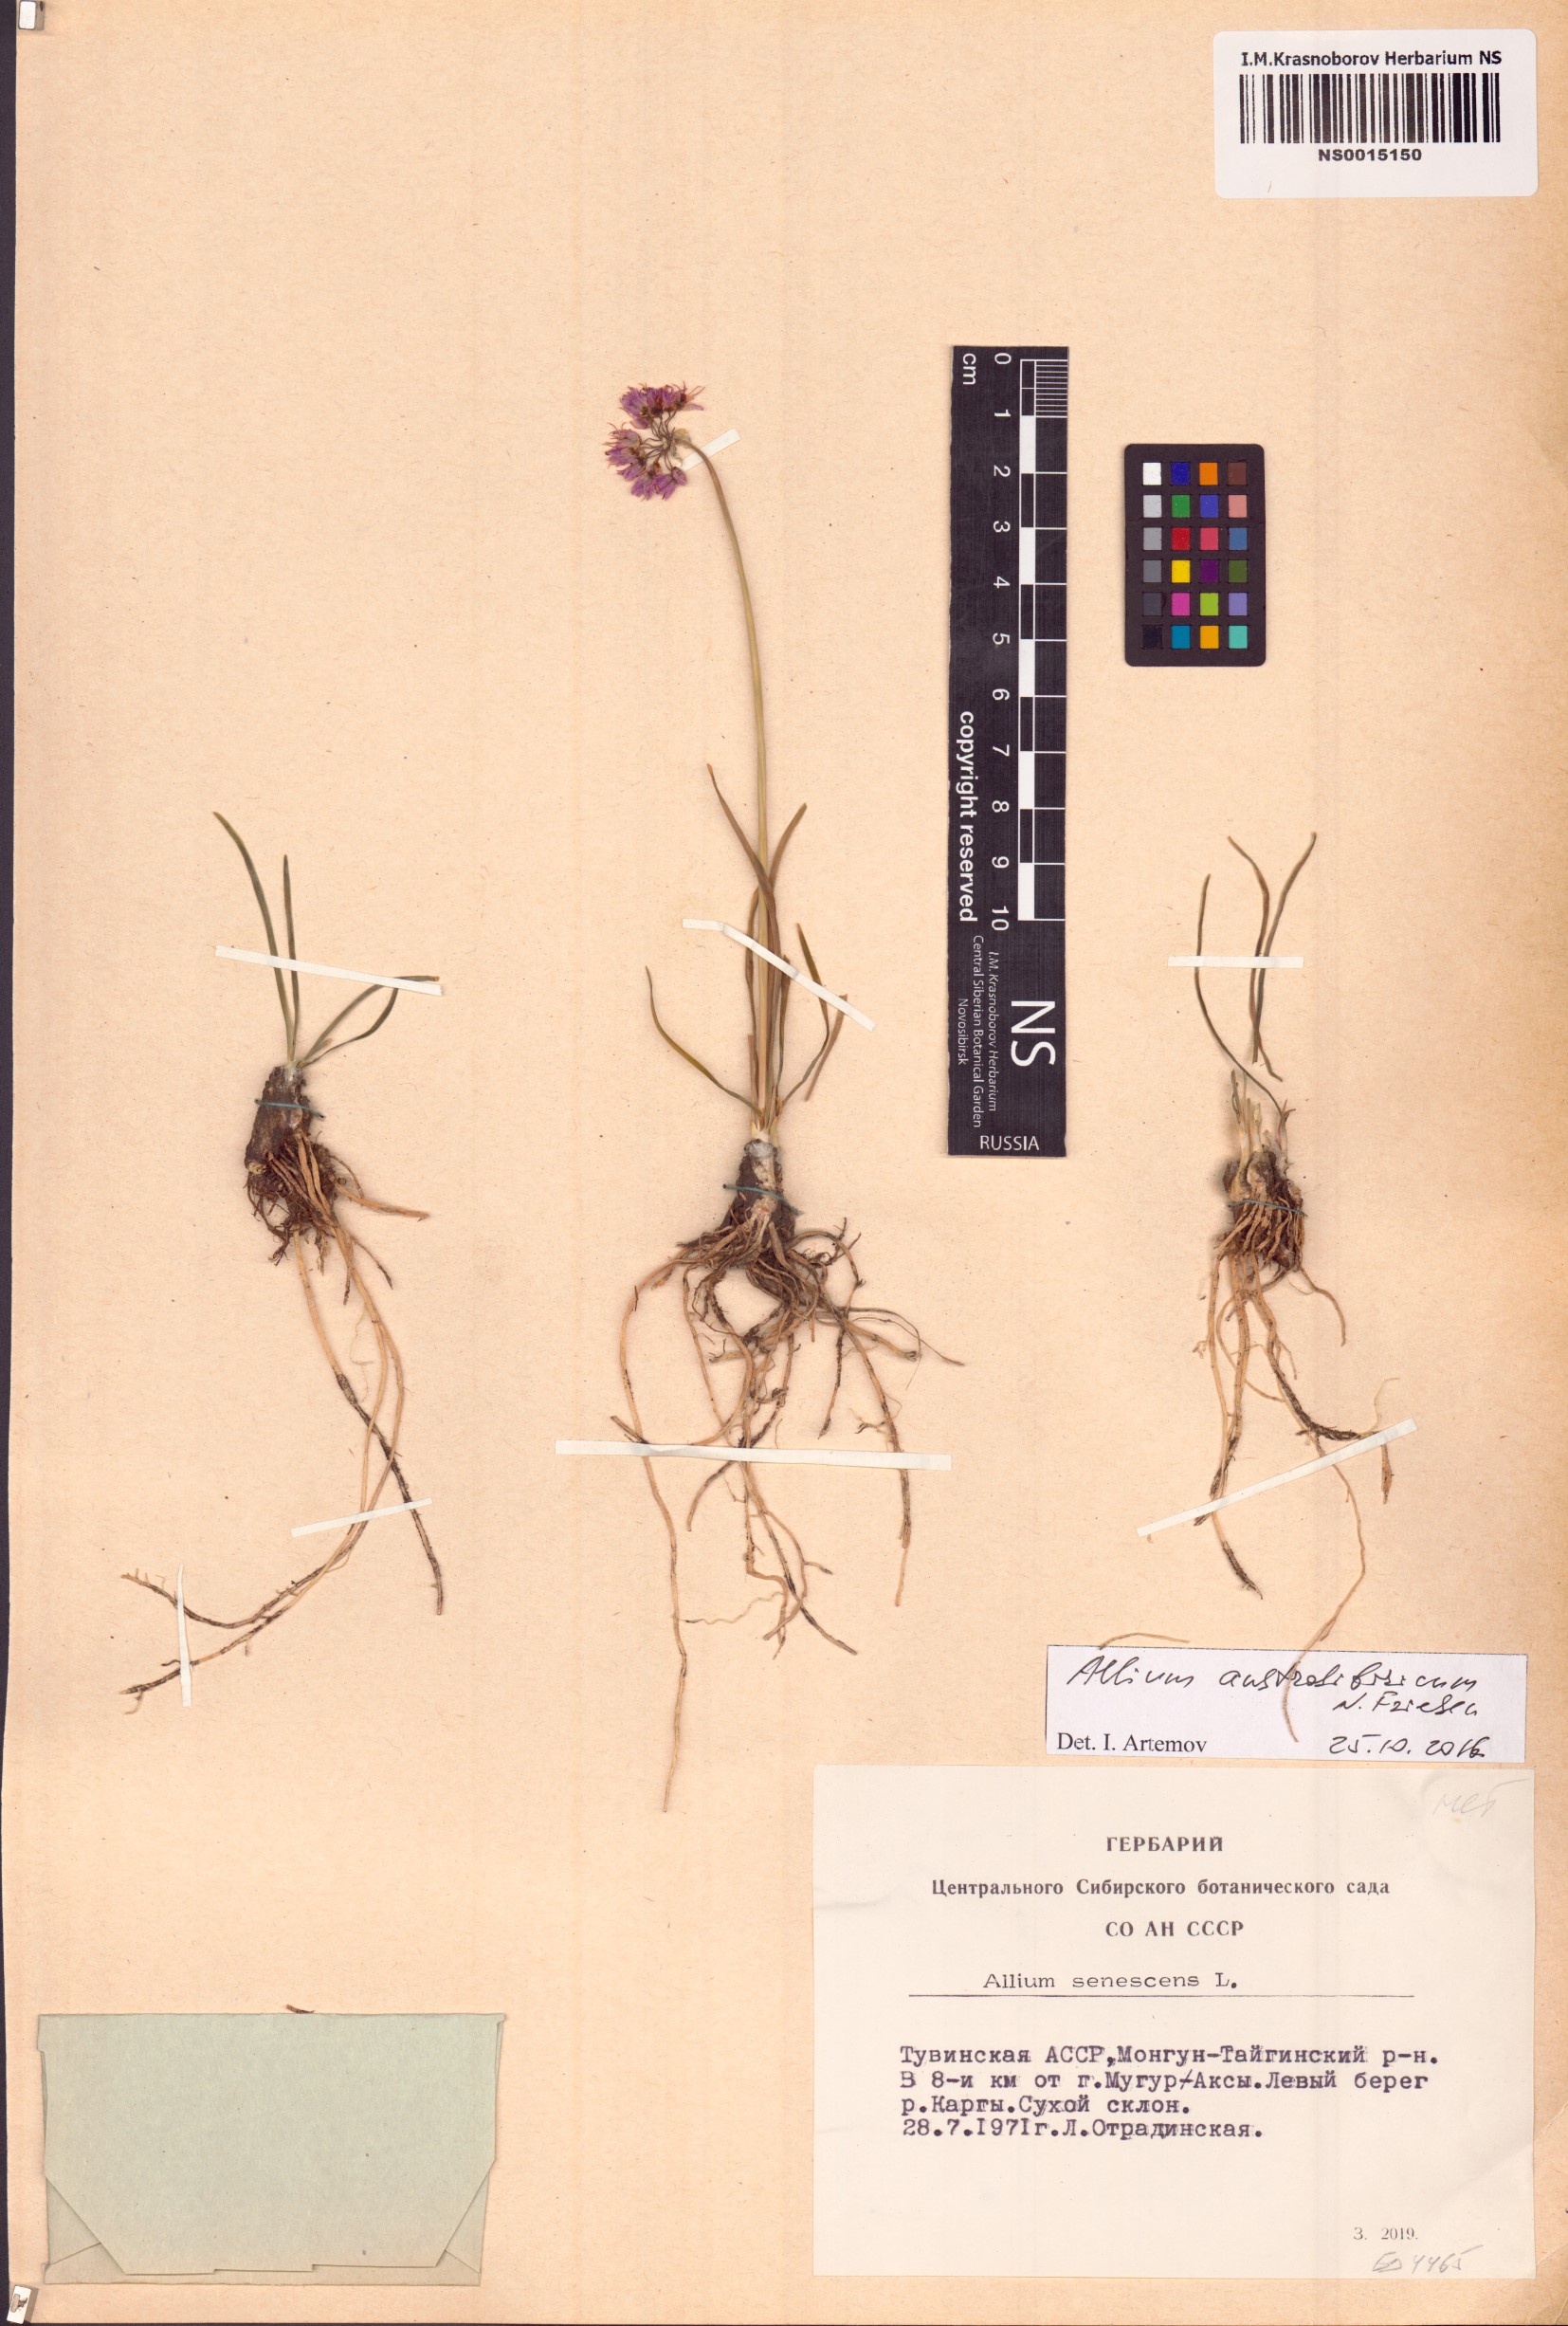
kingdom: Plantae
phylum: Tracheophyta
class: Liliopsida
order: Asparagales
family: Amaryllidaceae
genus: Allium
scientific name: Allium austrosibiricum
